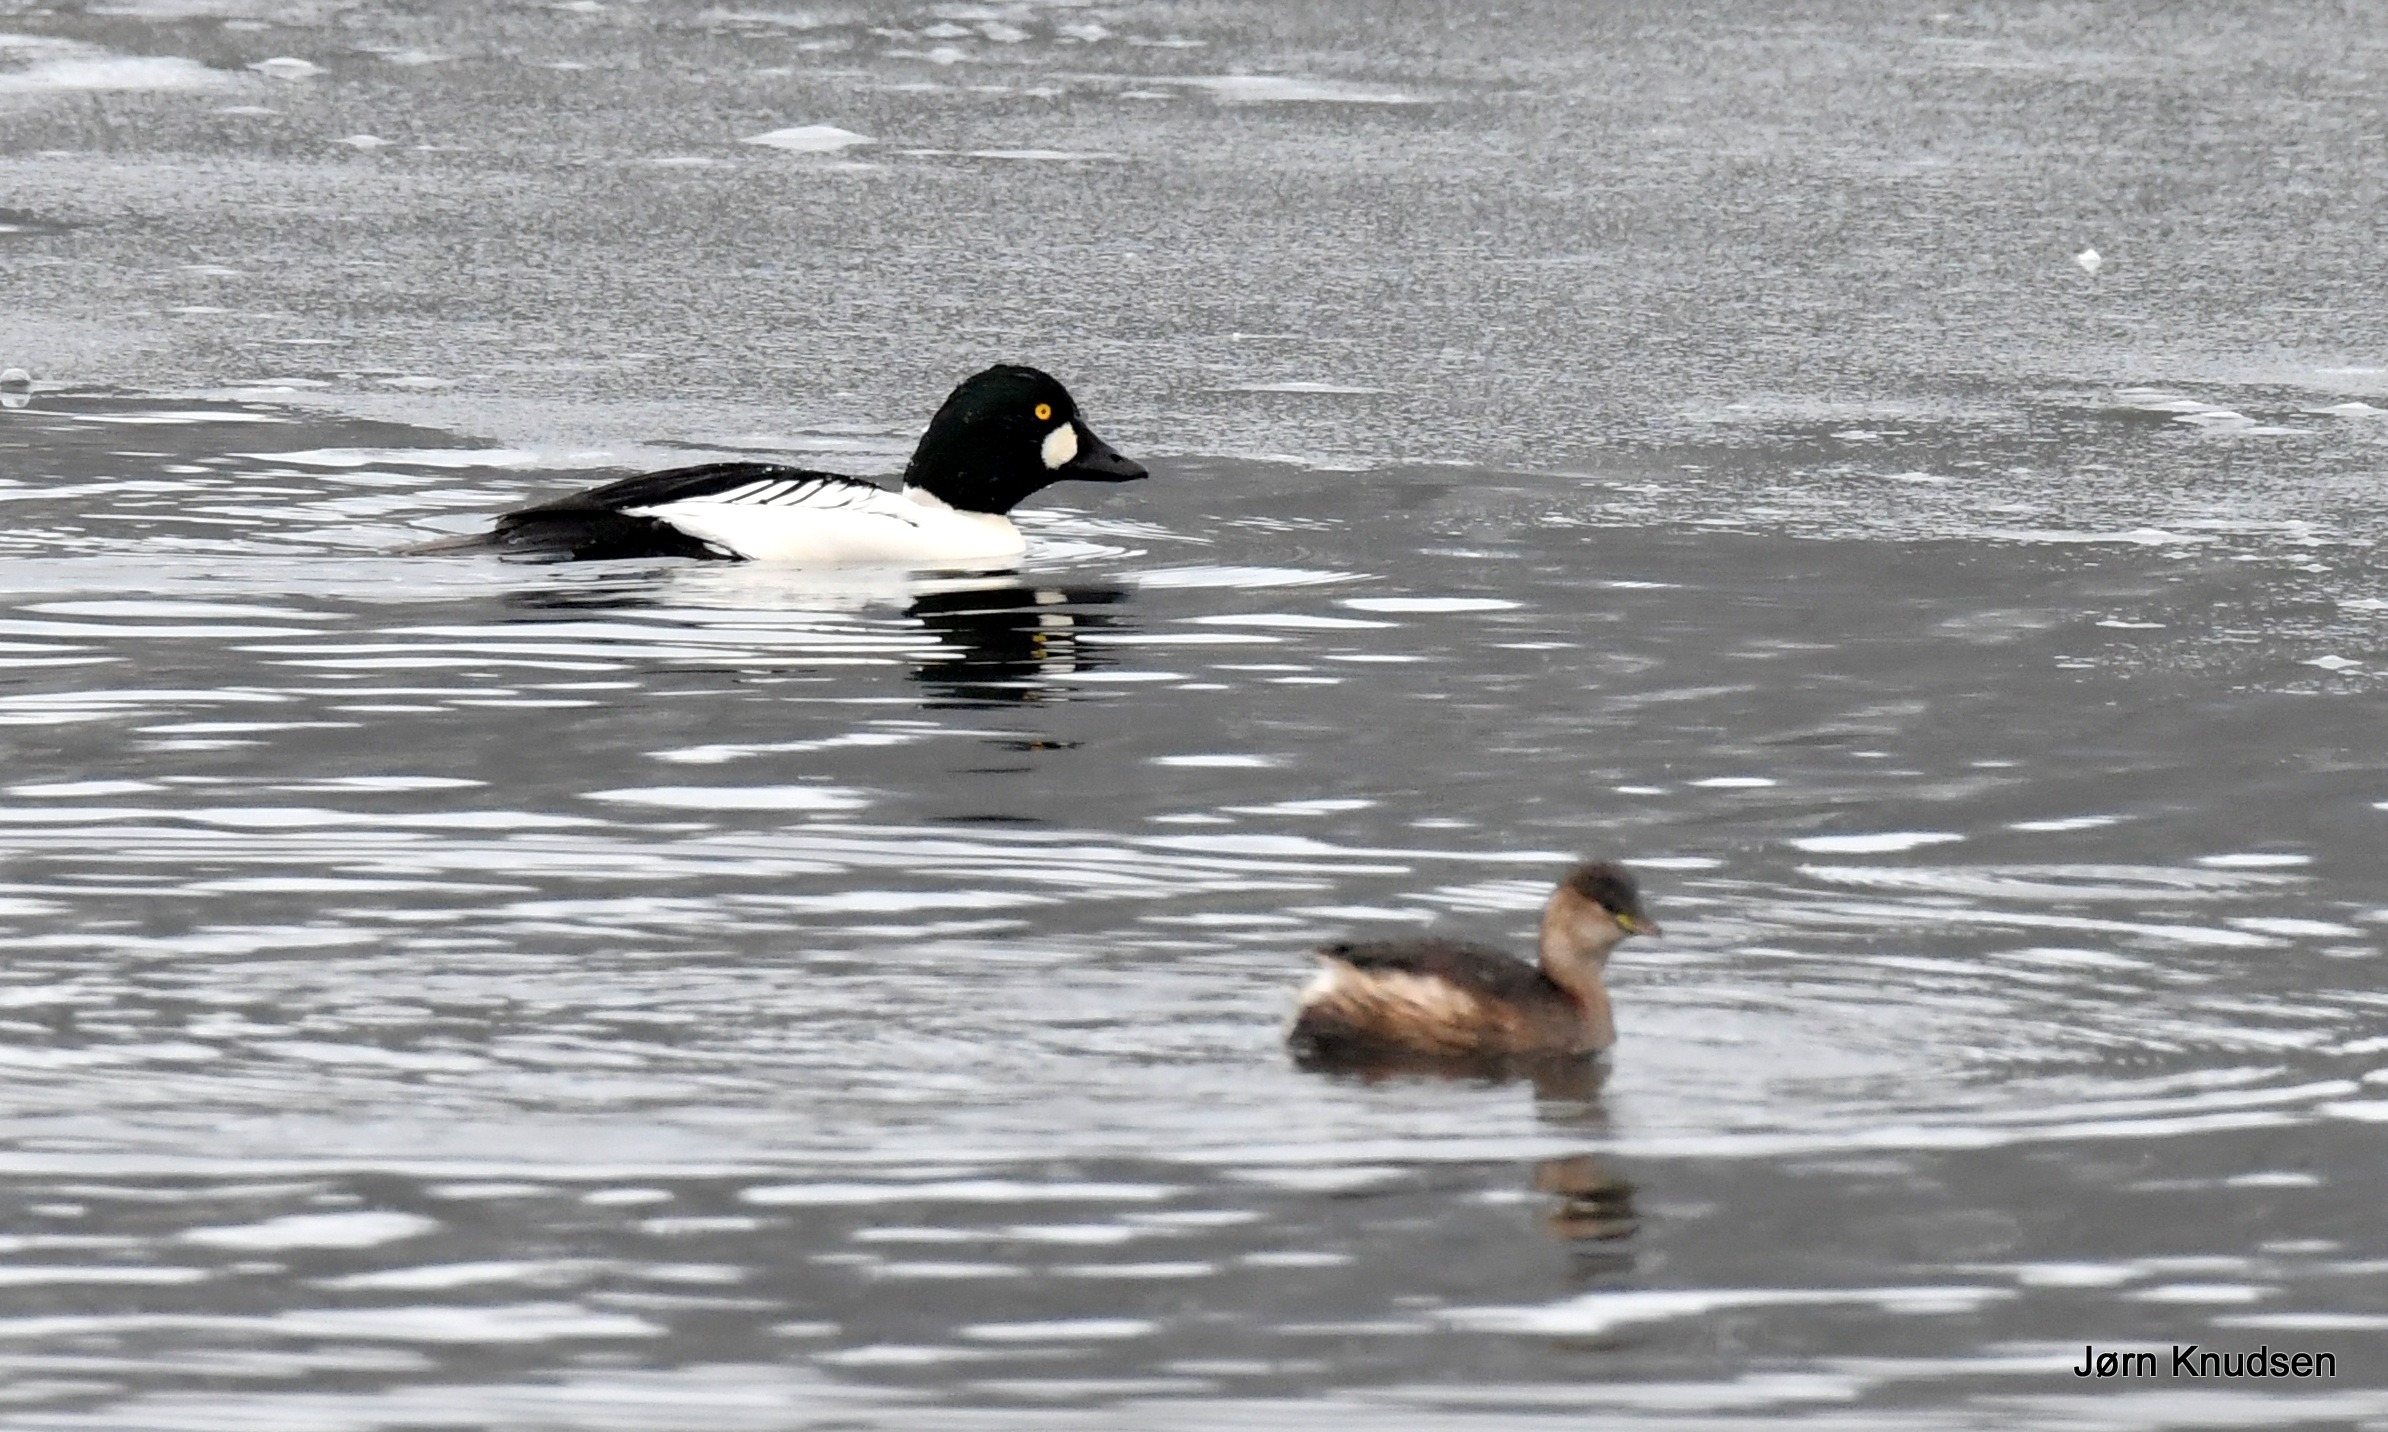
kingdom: Animalia
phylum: Chordata
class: Aves
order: Anseriformes
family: Anatidae
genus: Bucephala
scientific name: Bucephala clangula
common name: Hvinand
